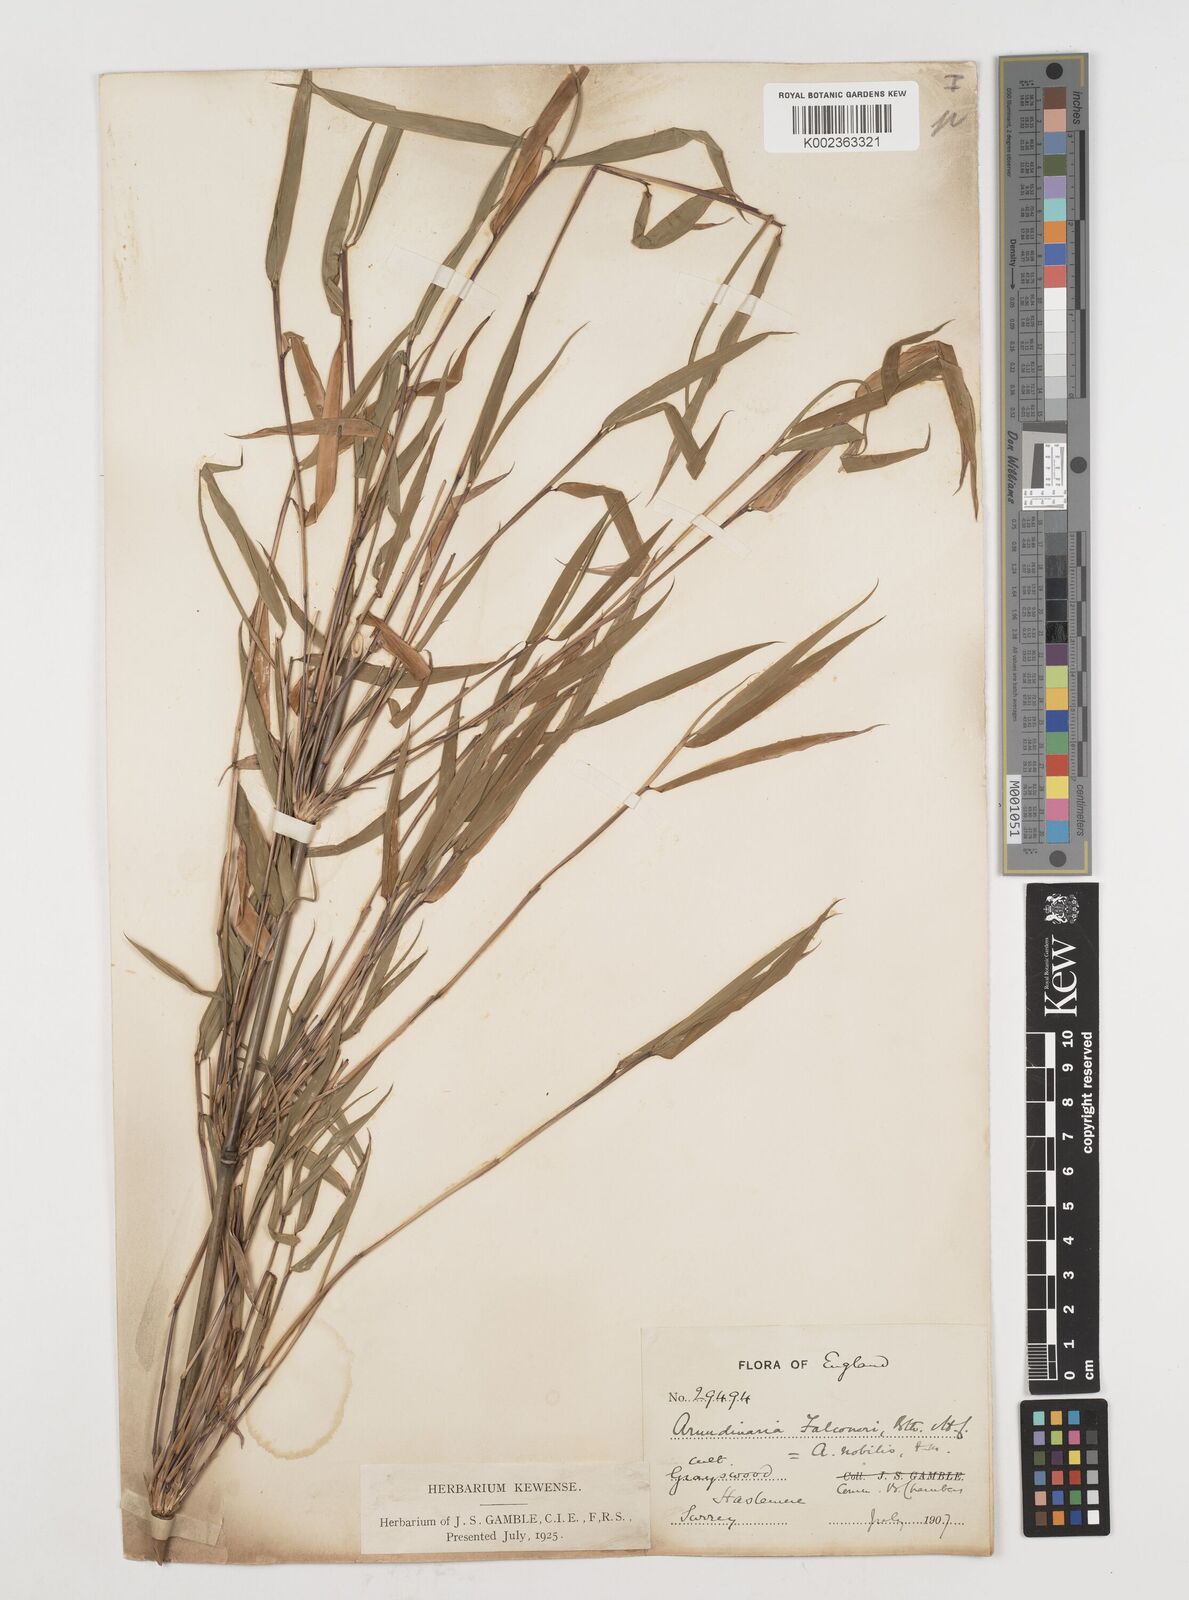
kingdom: Plantae
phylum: Tracheophyta
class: Liliopsida
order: Poales
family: Poaceae
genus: Himalayacalamus
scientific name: Himalayacalamus falconeri
